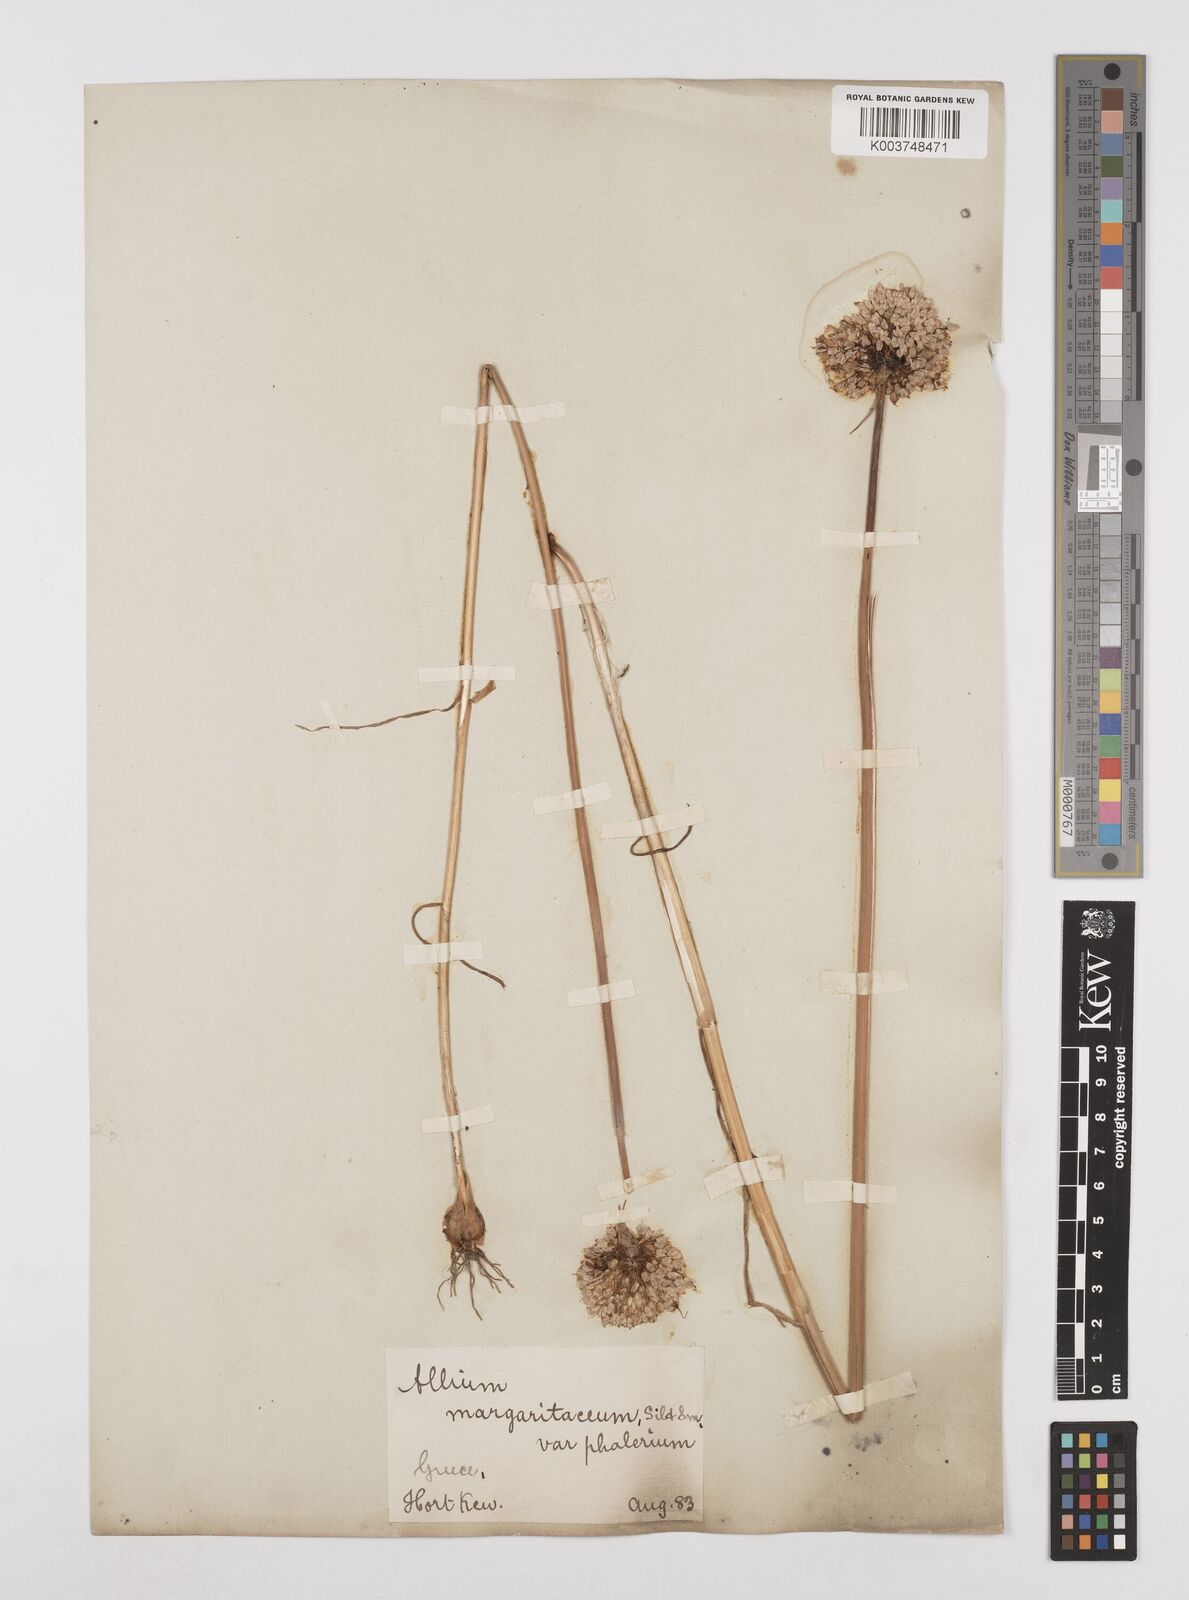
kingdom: Plantae
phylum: Tracheophyta
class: Liliopsida
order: Asparagales
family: Amaryllidaceae
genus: Allium
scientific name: Allium staticiforme
